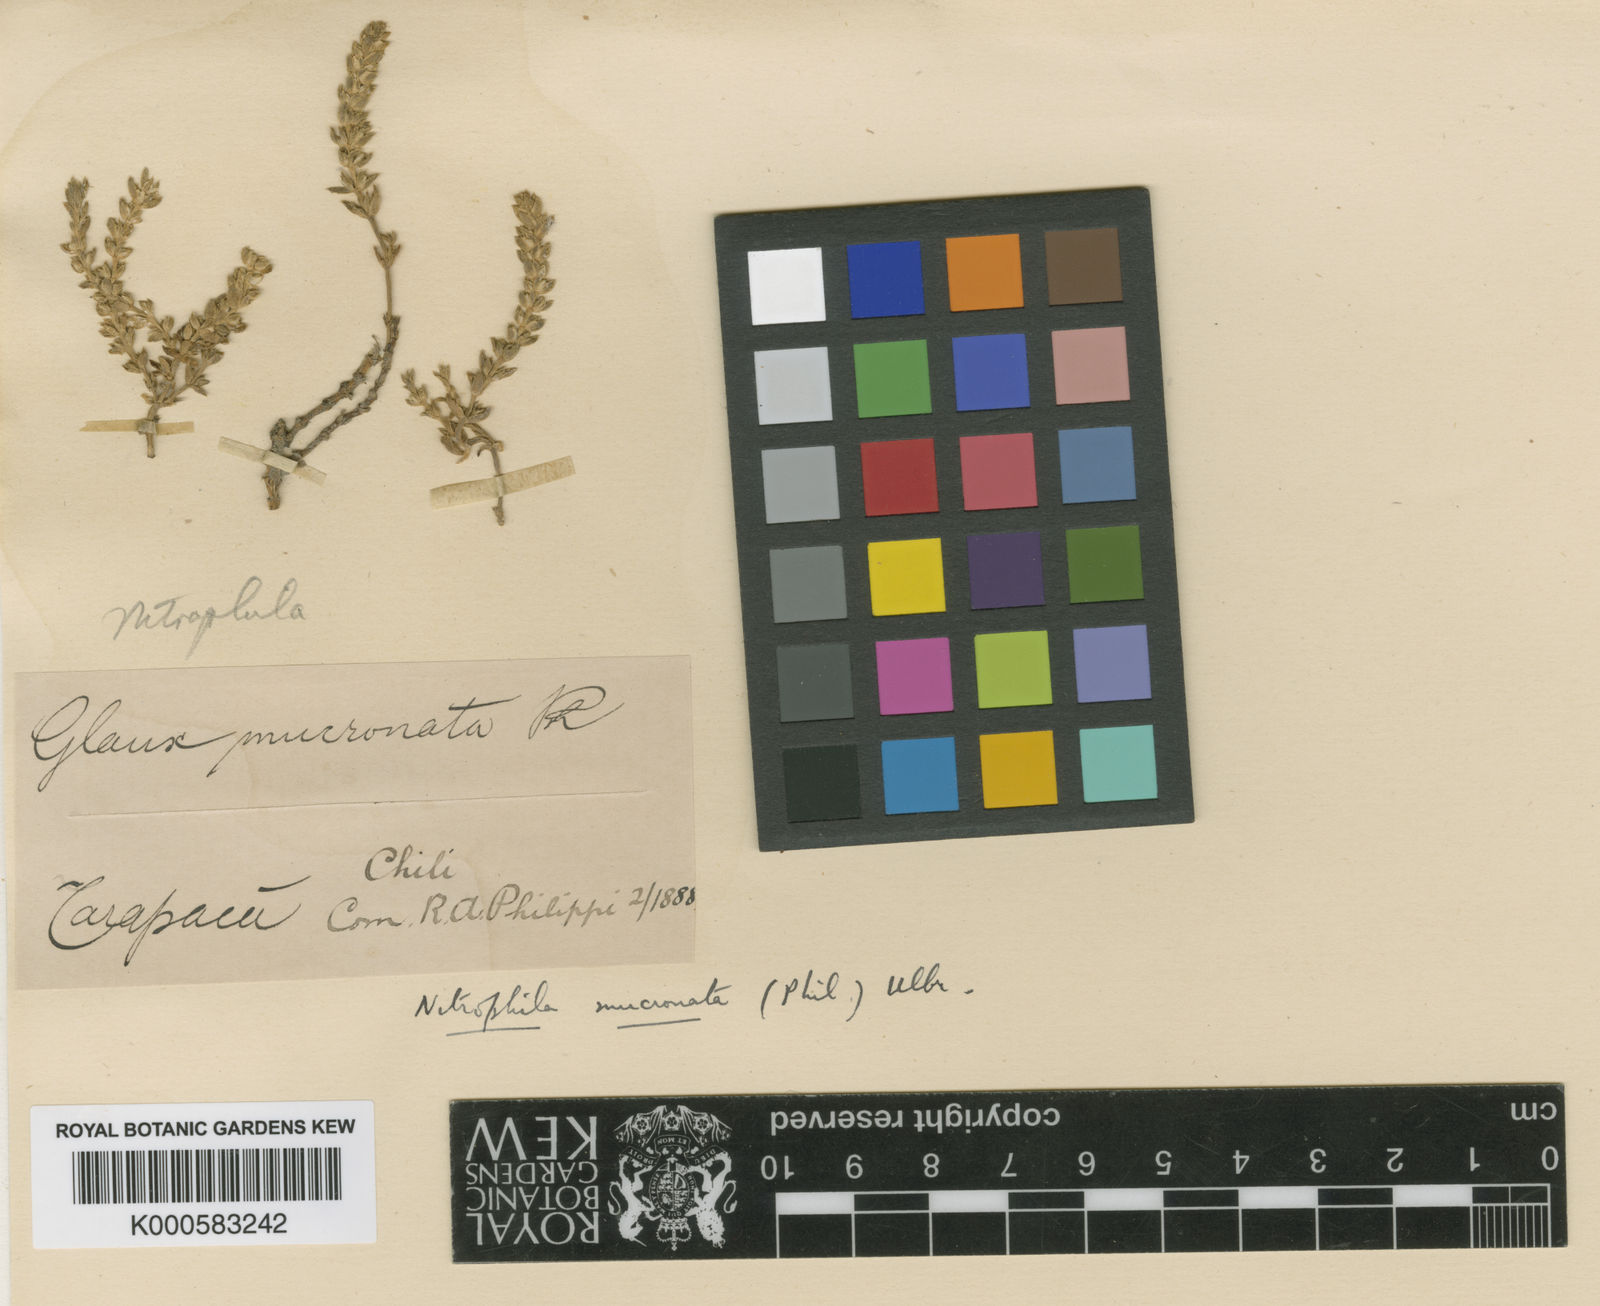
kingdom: Plantae
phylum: Tracheophyta
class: Magnoliopsida
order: Caryophyllales
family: Amaranthaceae
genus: Nitrophila
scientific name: Nitrophila australis
